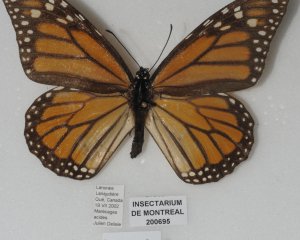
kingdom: Animalia
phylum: Arthropoda
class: Insecta
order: Lepidoptera
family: Nymphalidae
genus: Danaus
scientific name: Danaus plexippus
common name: Monarch
